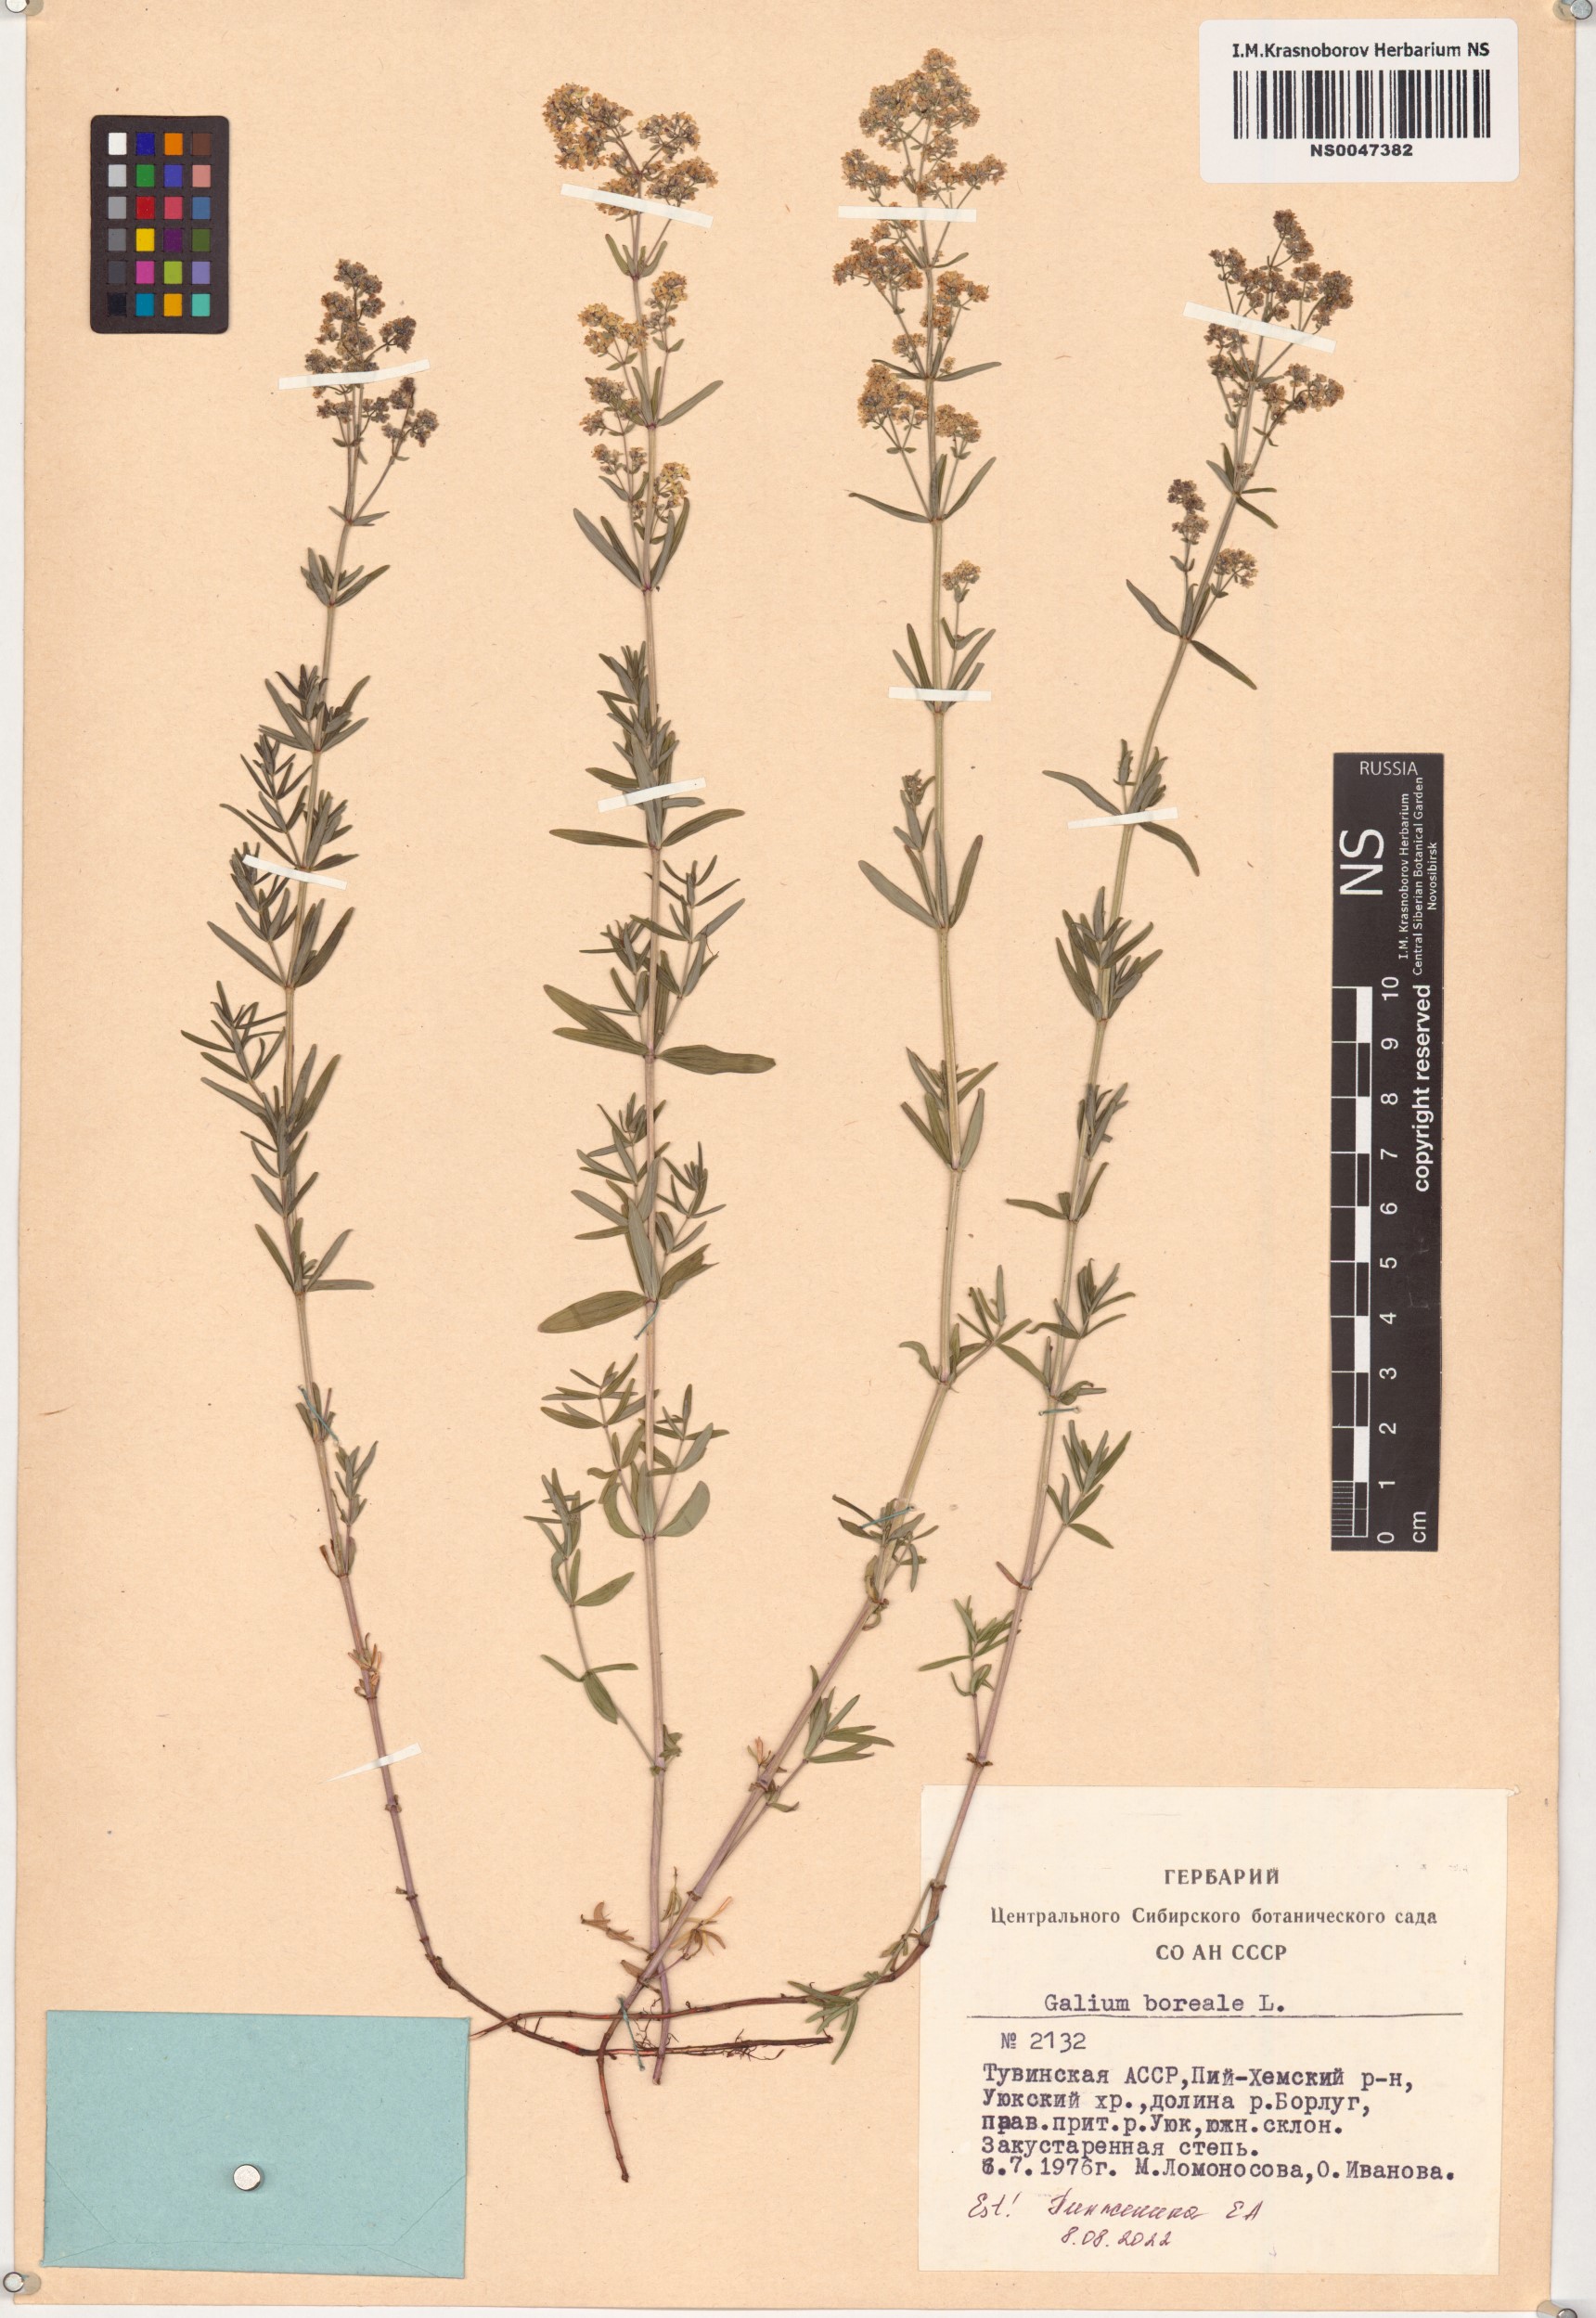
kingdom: Plantae
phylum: Tracheophyta
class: Magnoliopsida
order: Gentianales
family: Rubiaceae
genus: Galium
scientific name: Galium boreale
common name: Northern bedstraw
